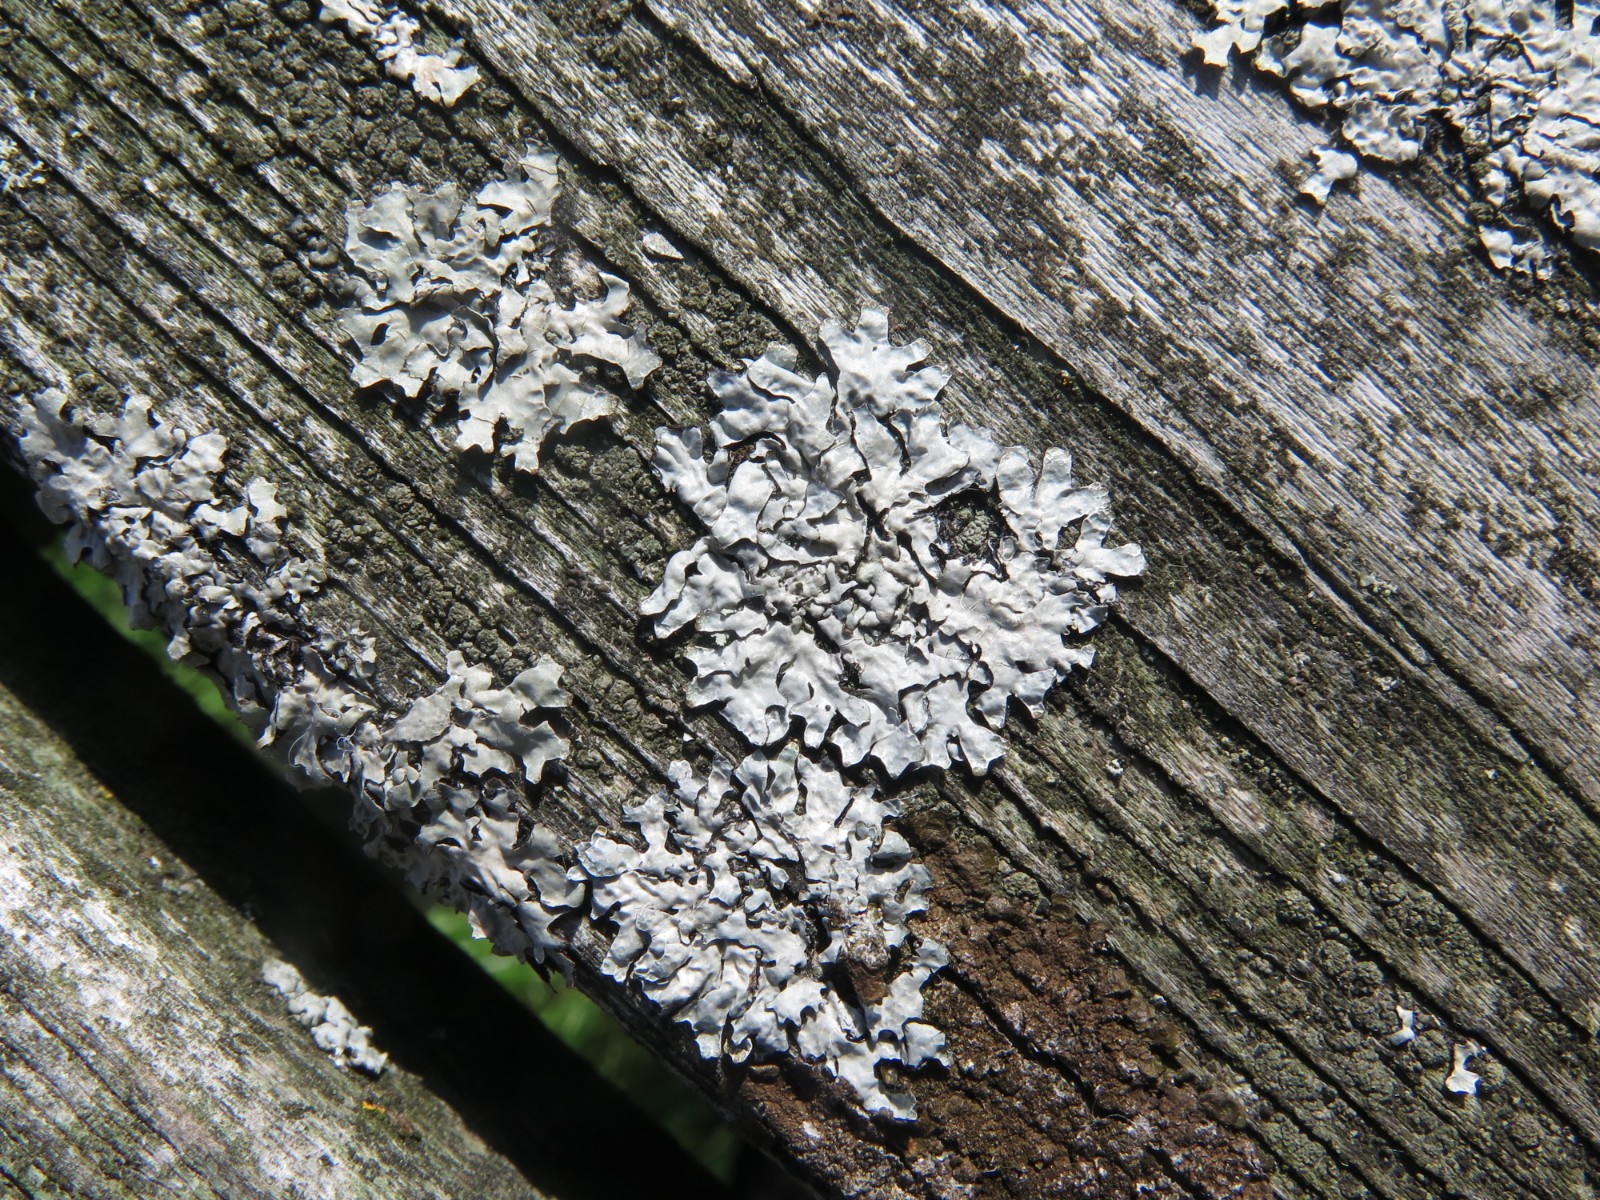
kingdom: Fungi
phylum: Ascomycota
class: Lecanoromycetes
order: Lecanorales
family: Parmeliaceae
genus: Parmelia
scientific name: Parmelia sulcata
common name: rynket skållav
